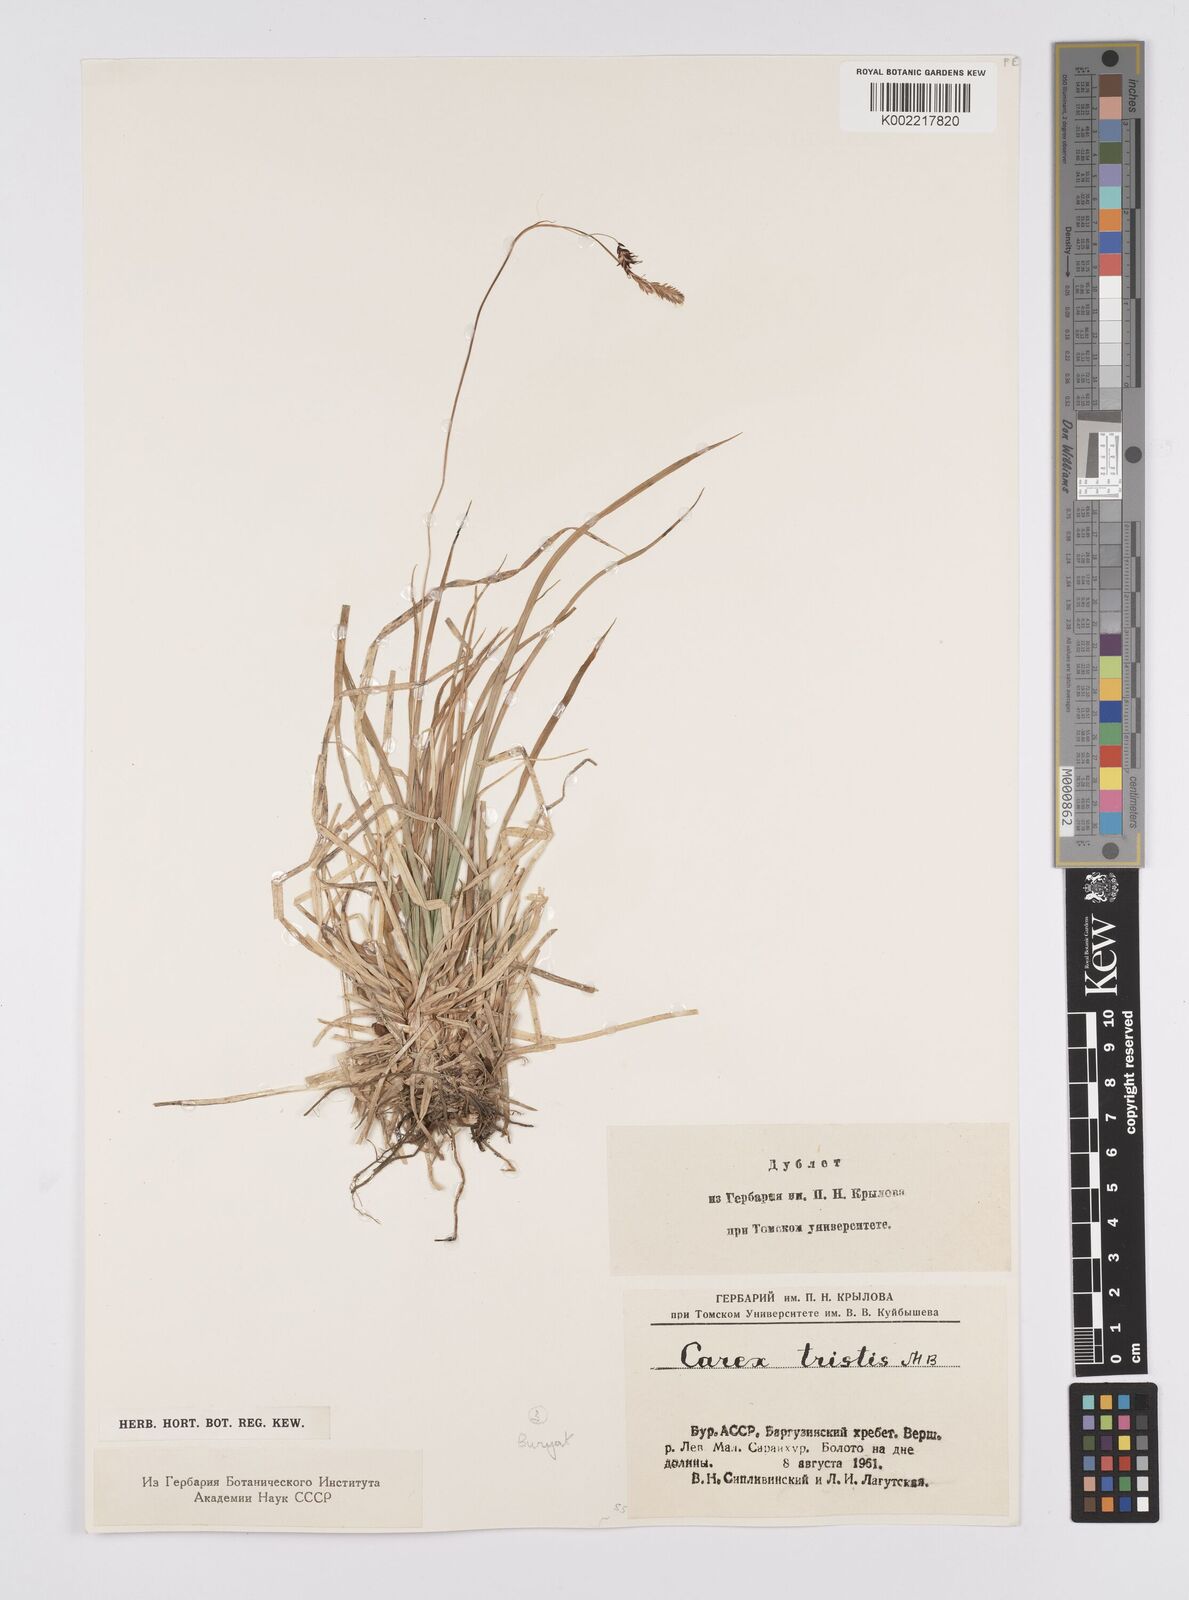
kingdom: Plantae
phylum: Tracheophyta
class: Liliopsida
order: Poales
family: Cyperaceae
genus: Carex
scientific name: Carex tristis
